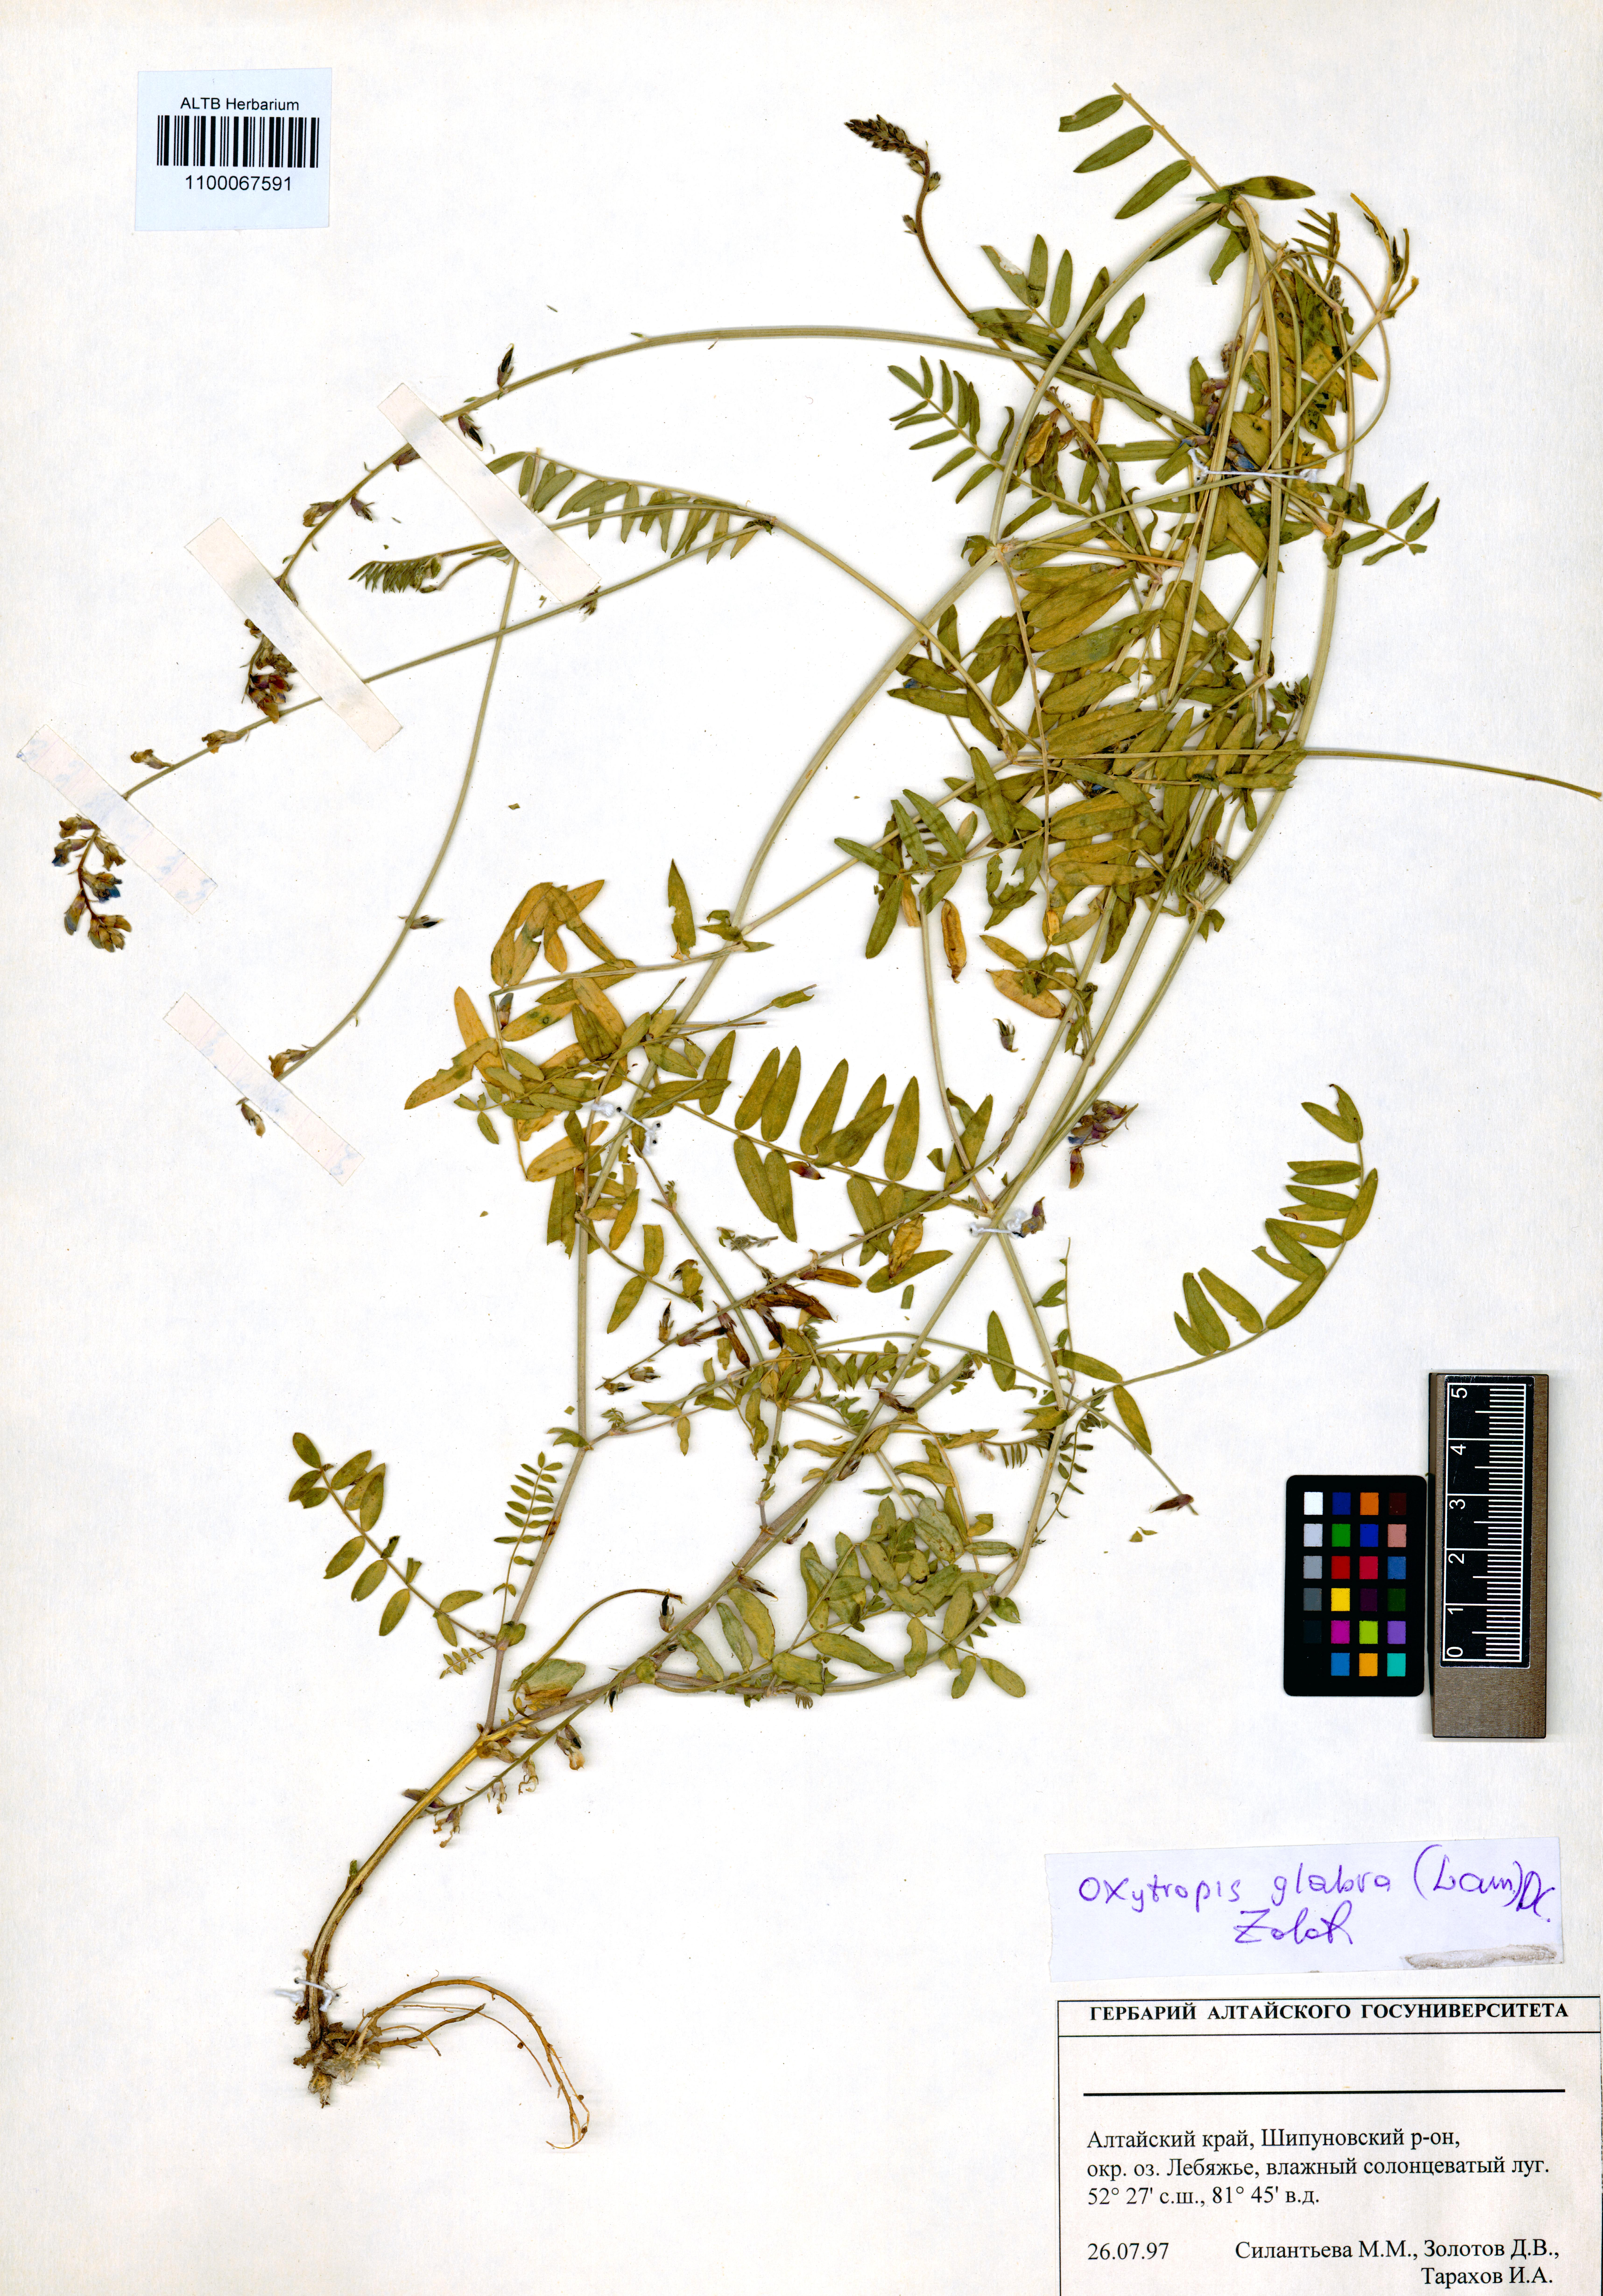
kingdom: Plantae
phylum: Tracheophyta
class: Magnoliopsida
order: Fabales
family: Fabaceae
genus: Oxytropis
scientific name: Oxytropis glabra
